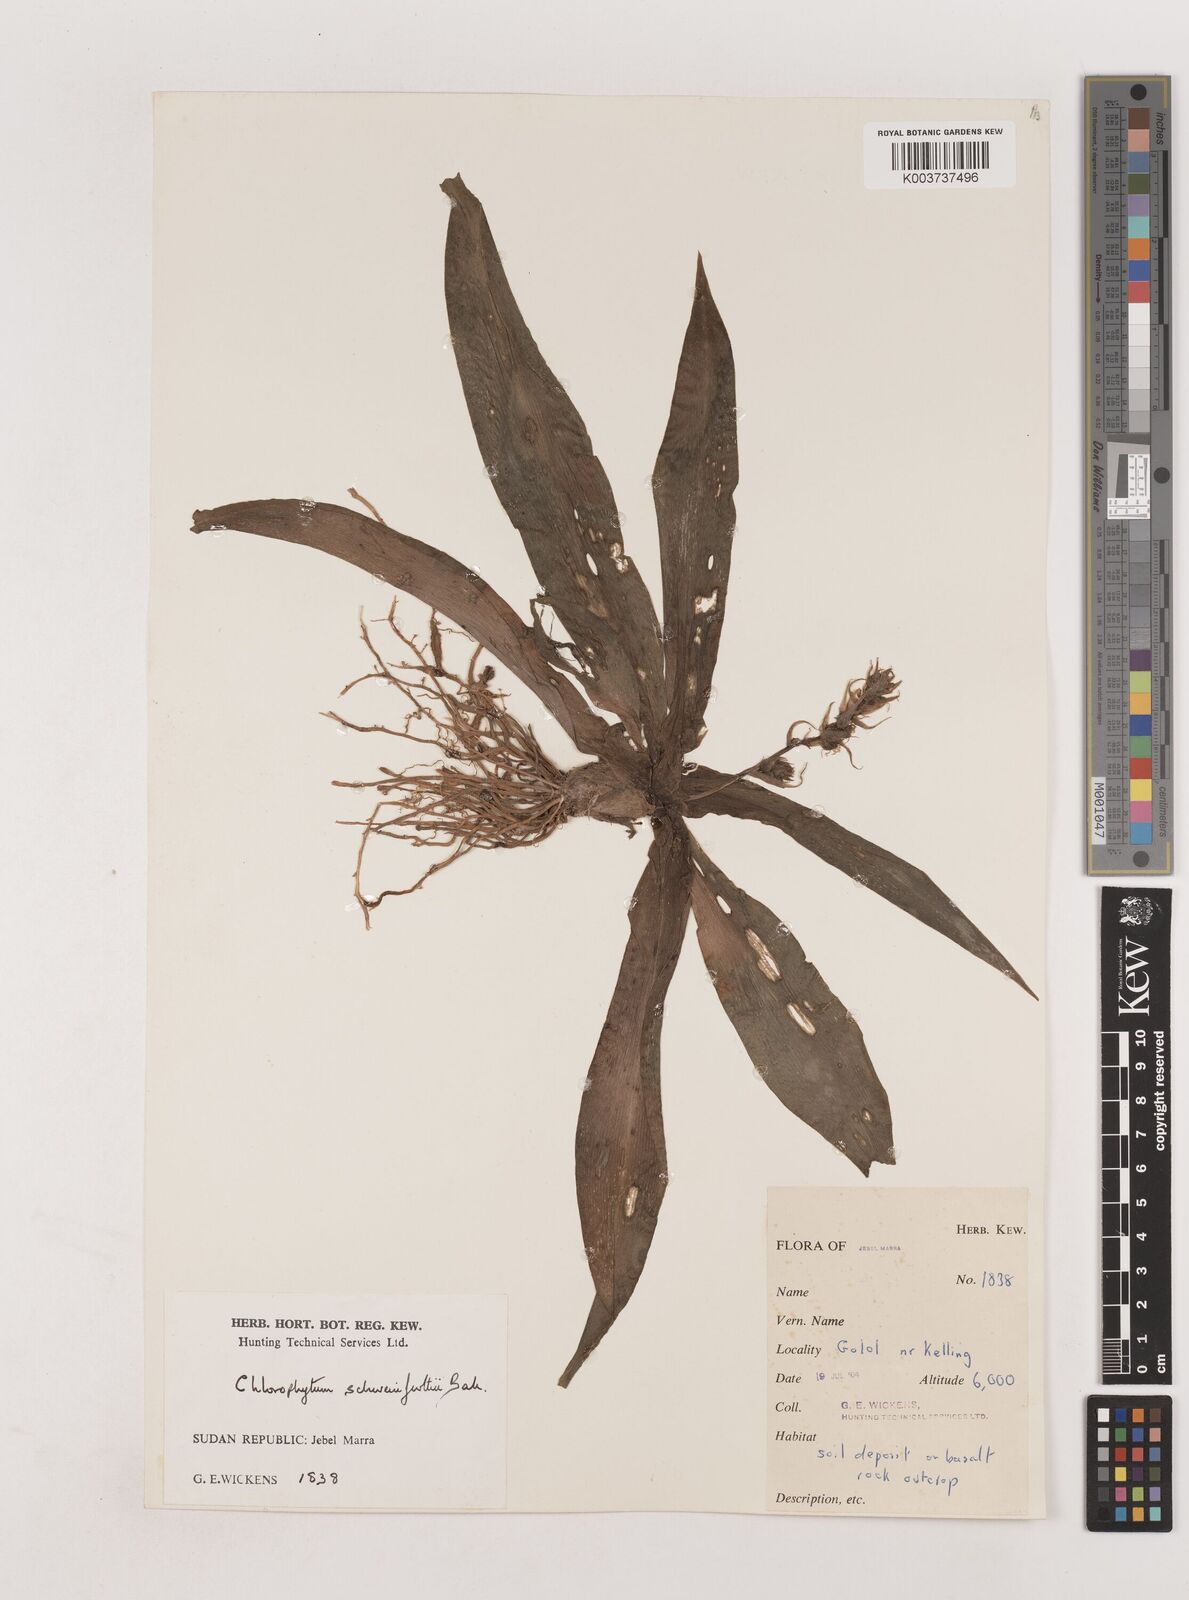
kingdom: Plantae
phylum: Tracheophyta
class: Liliopsida
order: Asparagales
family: Asparagaceae
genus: Chlorophytum
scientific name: Chlorophytum macrophyllum
